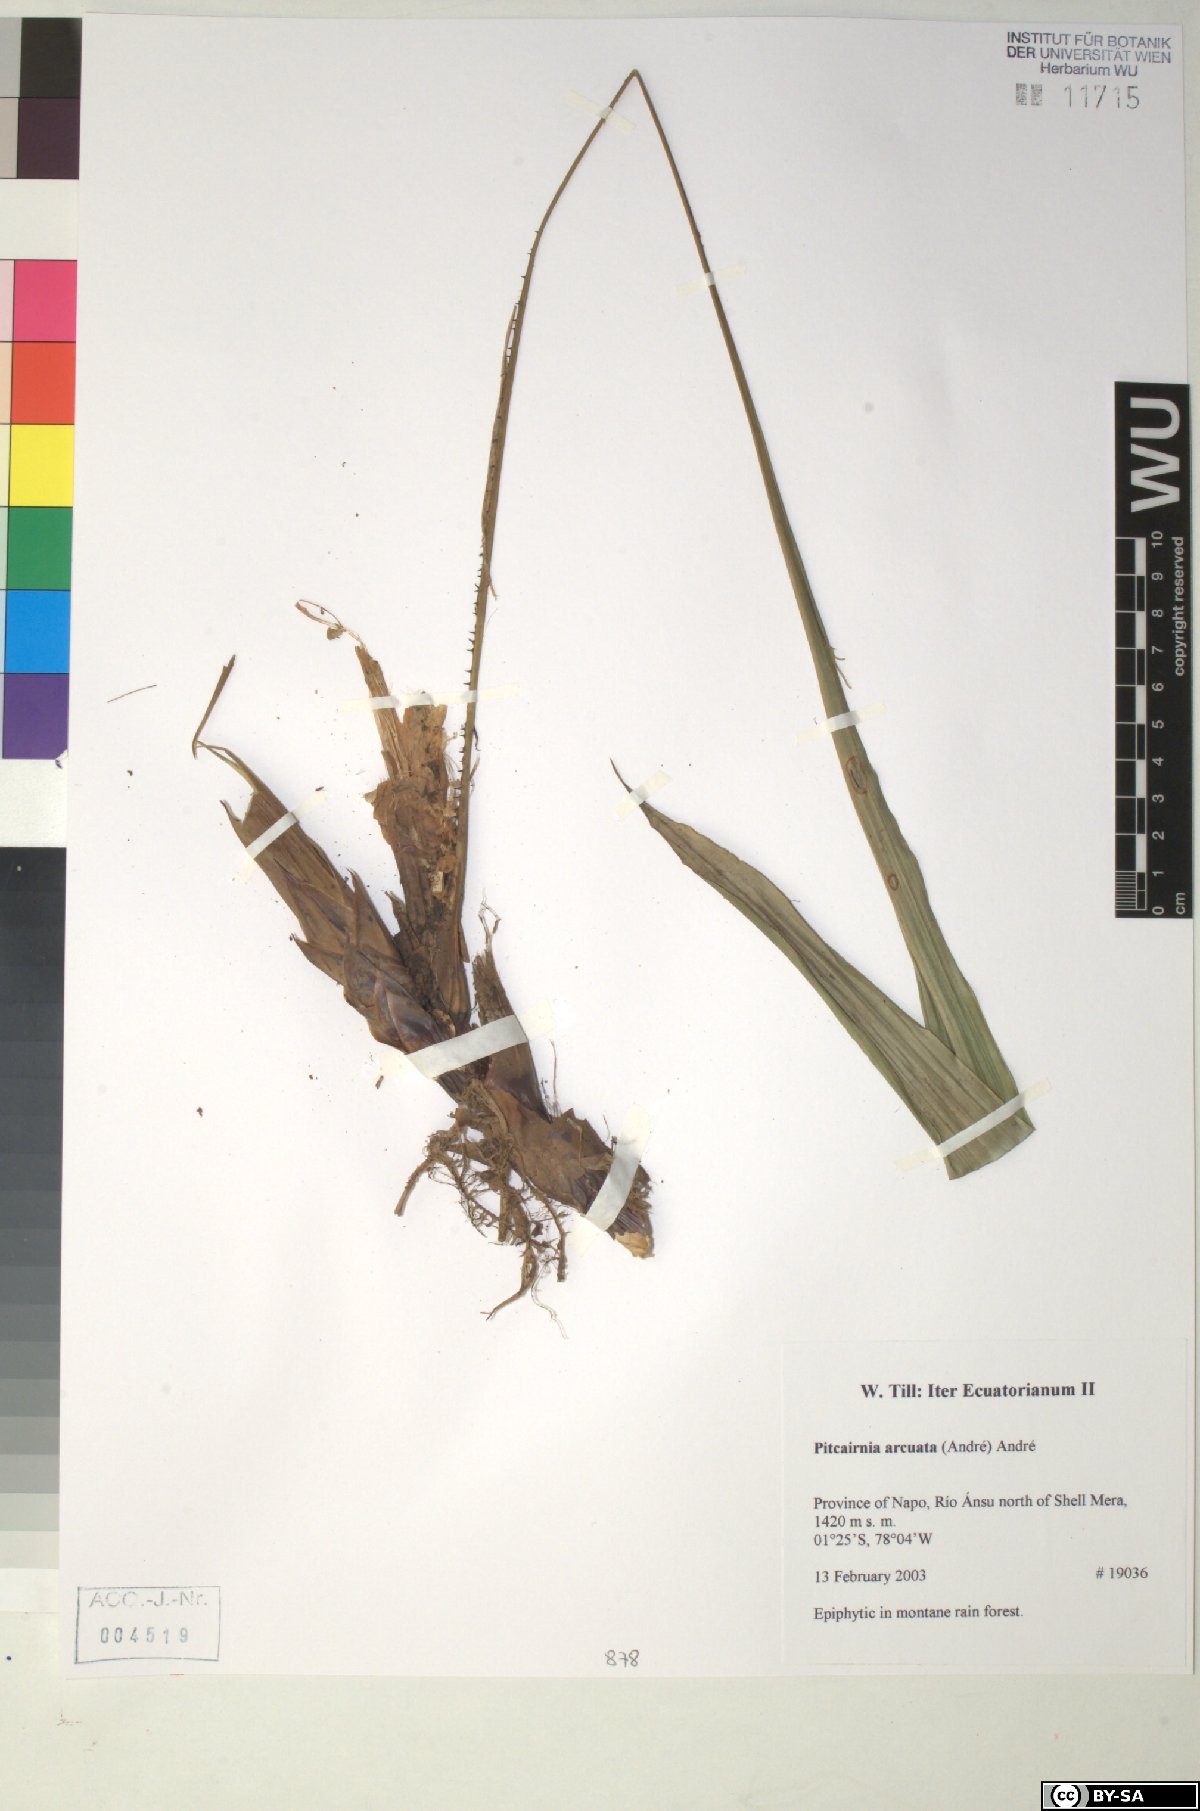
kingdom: Plantae
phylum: Tracheophyta
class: Liliopsida
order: Poales
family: Bromeliaceae
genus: Pitcairnia
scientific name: Pitcairnia arcuata
